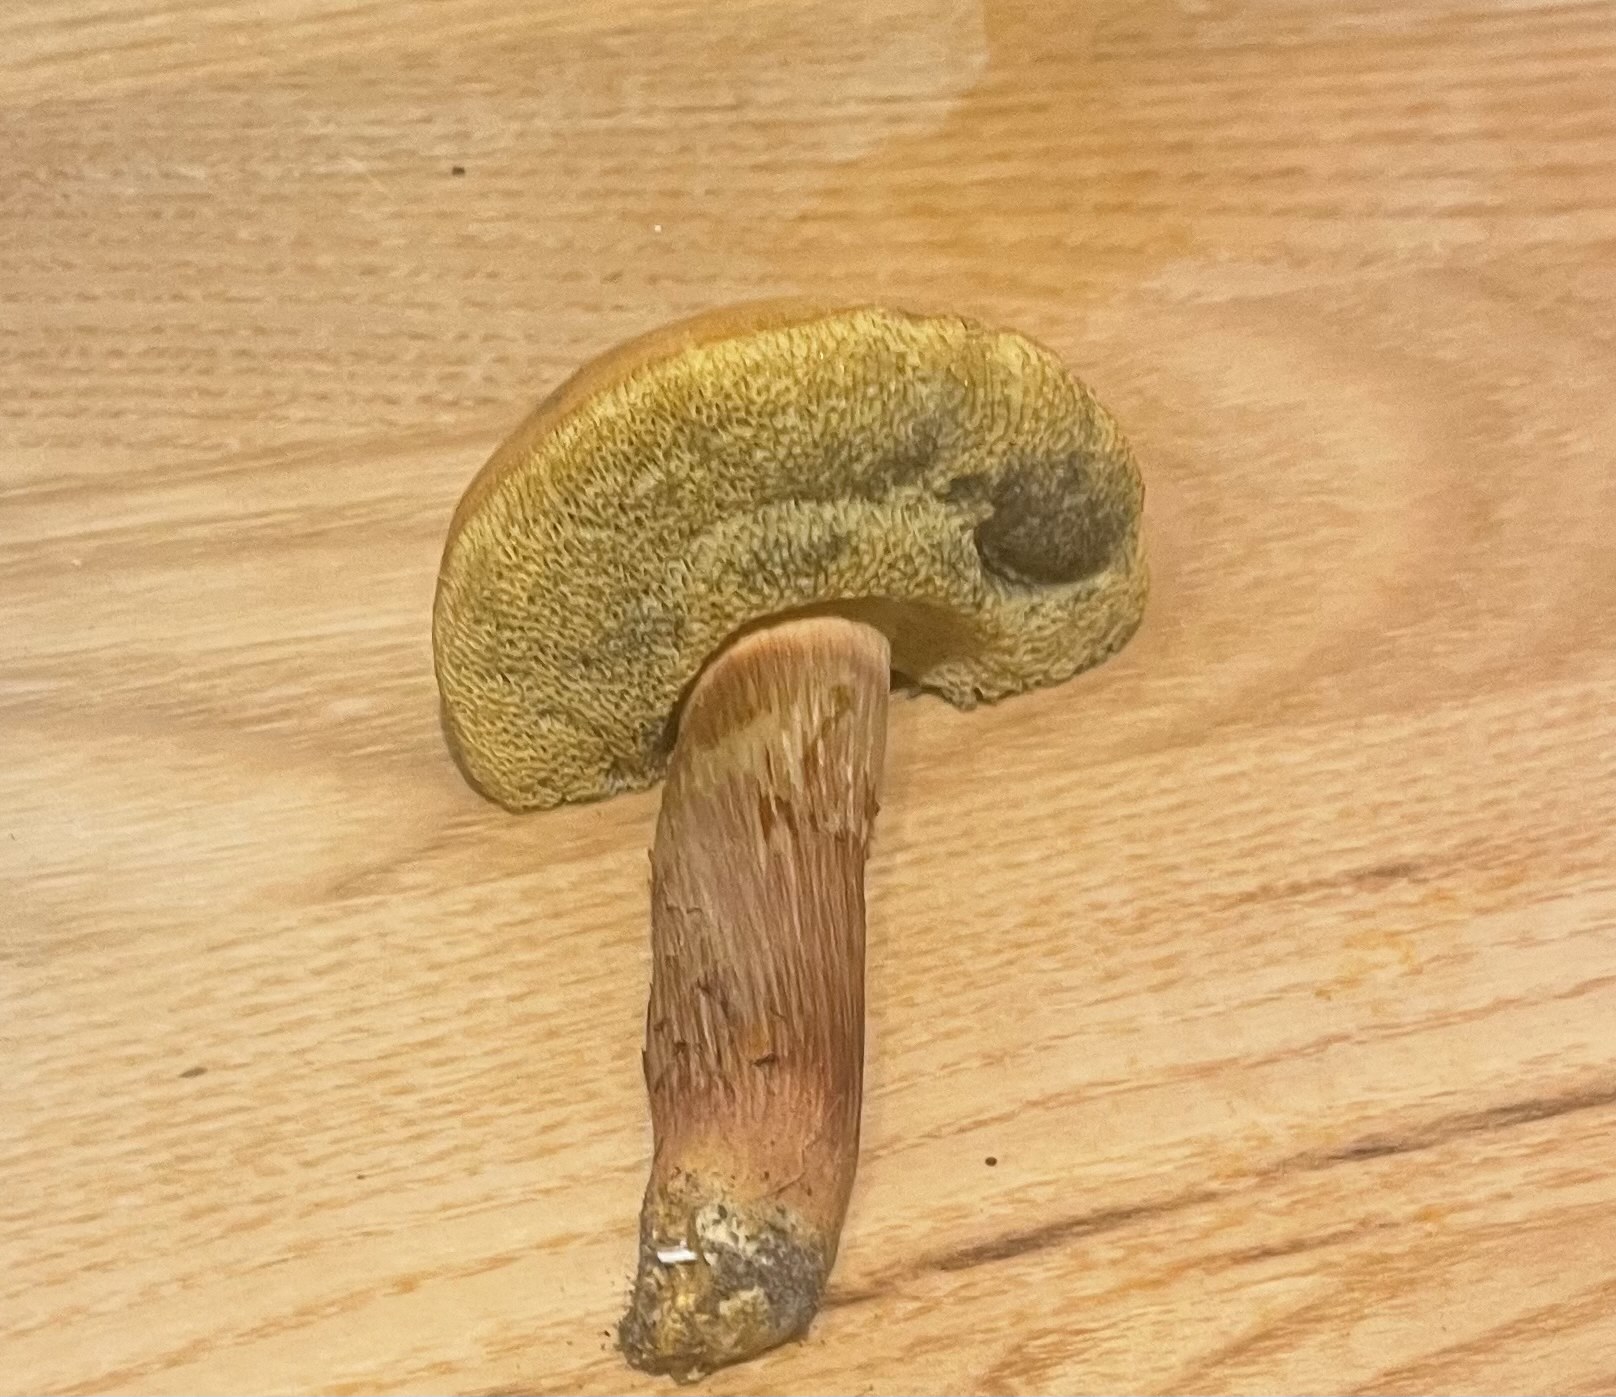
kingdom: Fungi
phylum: Basidiomycota
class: Agaricomycetes
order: Boletales
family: Boletaceae
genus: Hortiboletus
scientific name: Hortiboletus bubalinus
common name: aurora-rørhat
